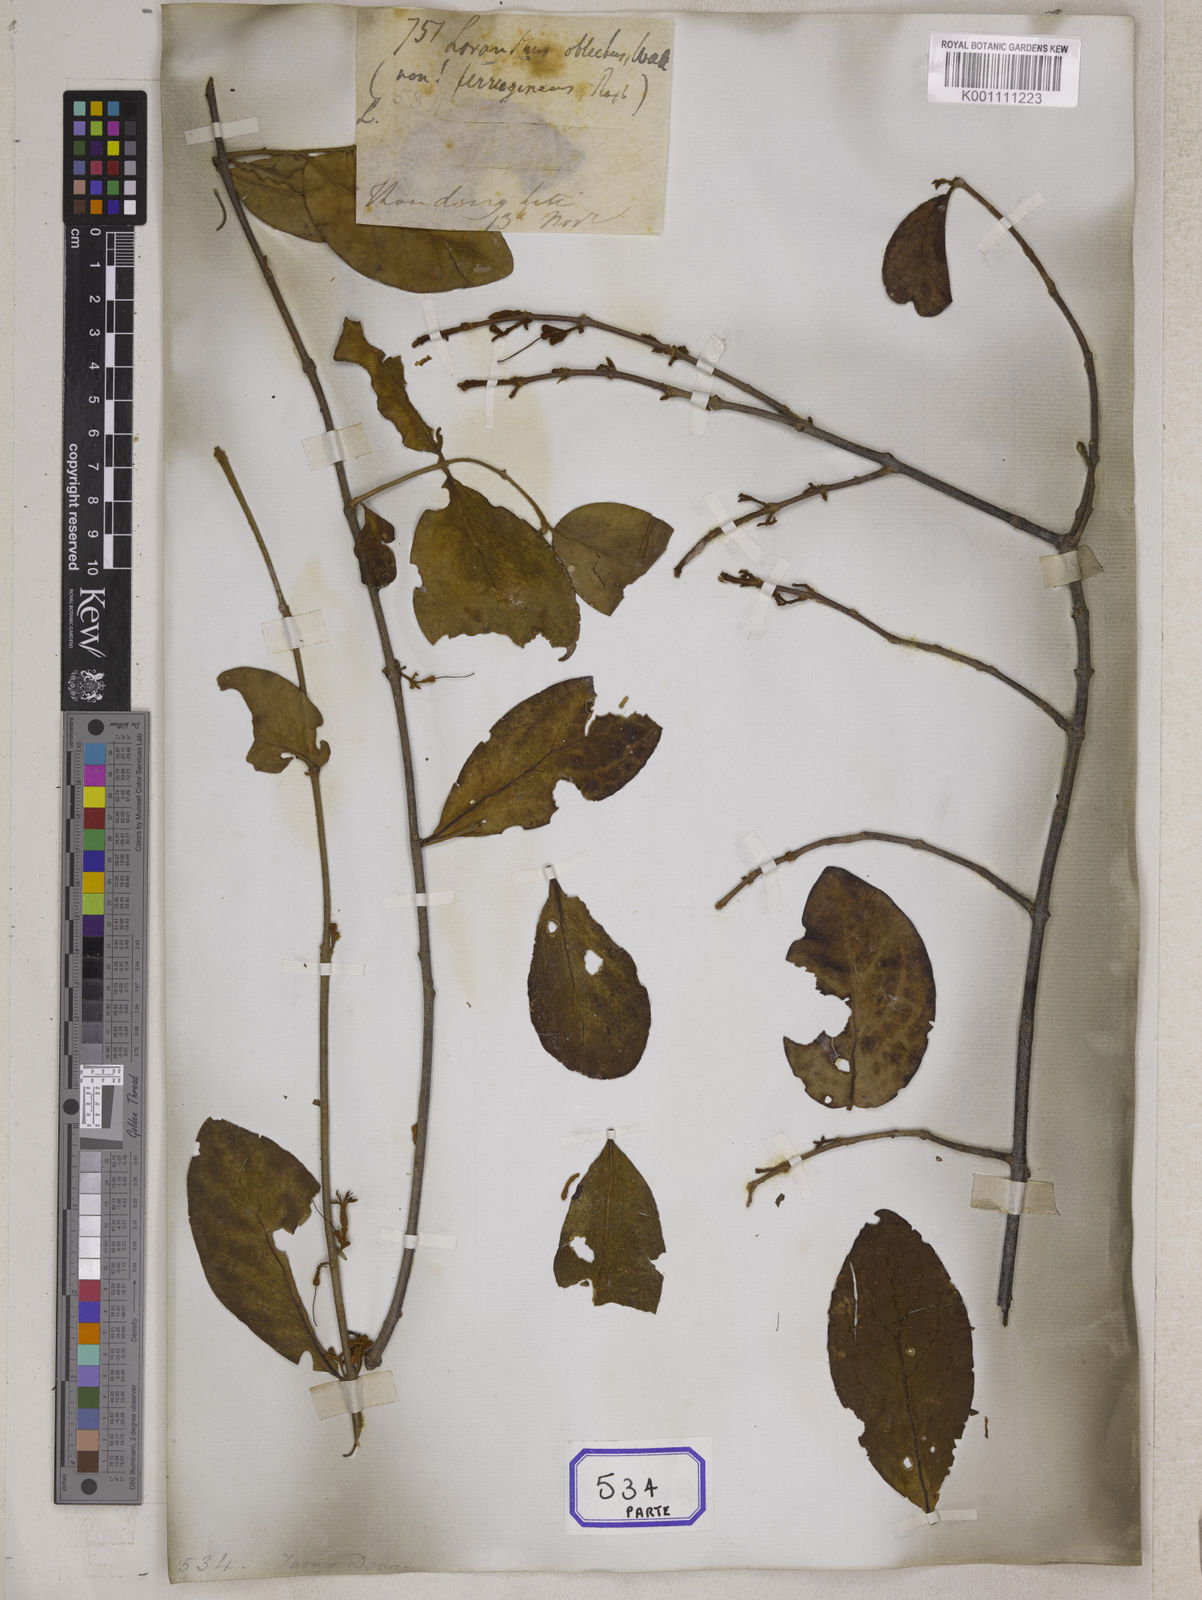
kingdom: Plantae
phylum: Tracheophyta
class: Magnoliopsida
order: Santalales
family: Loranthaceae
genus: Scurrula
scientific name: Scurrula parasitica
